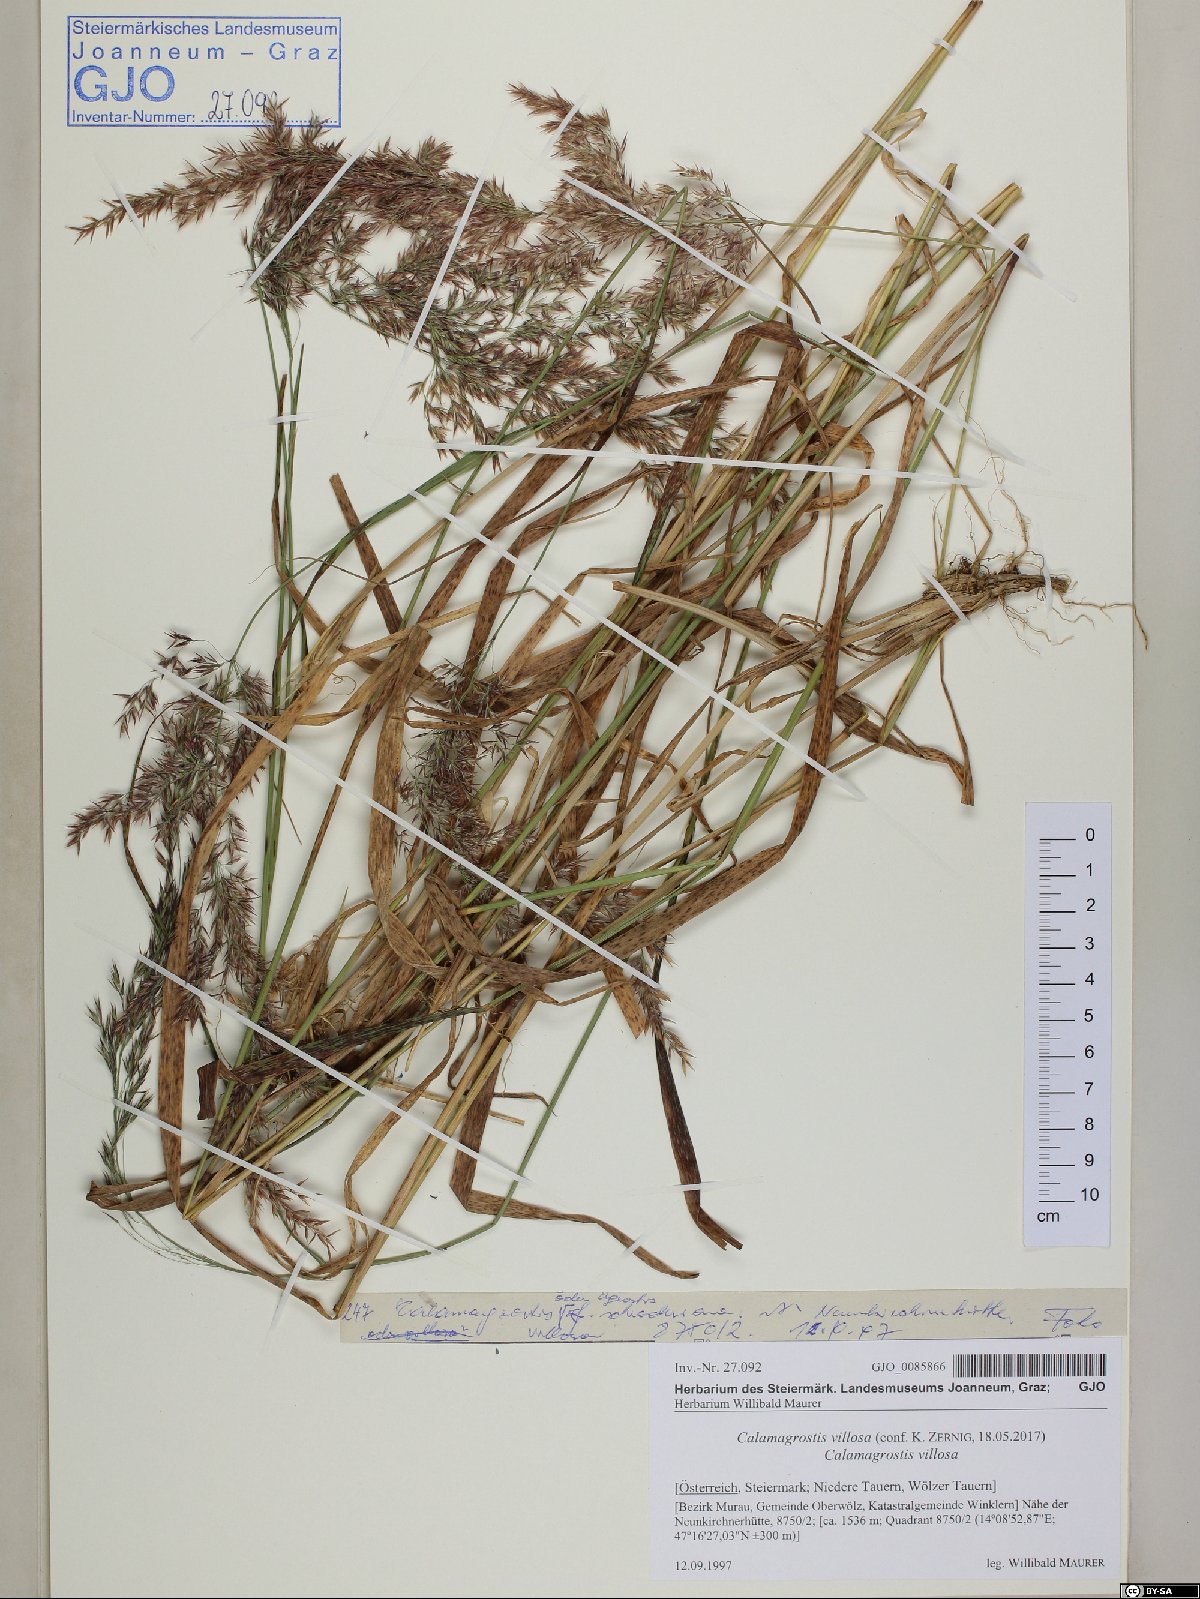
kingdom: Plantae
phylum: Tracheophyta
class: Liliopsida
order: Poales
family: Poaceae
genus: Calamagrostis
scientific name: Calamagrostis villosa
